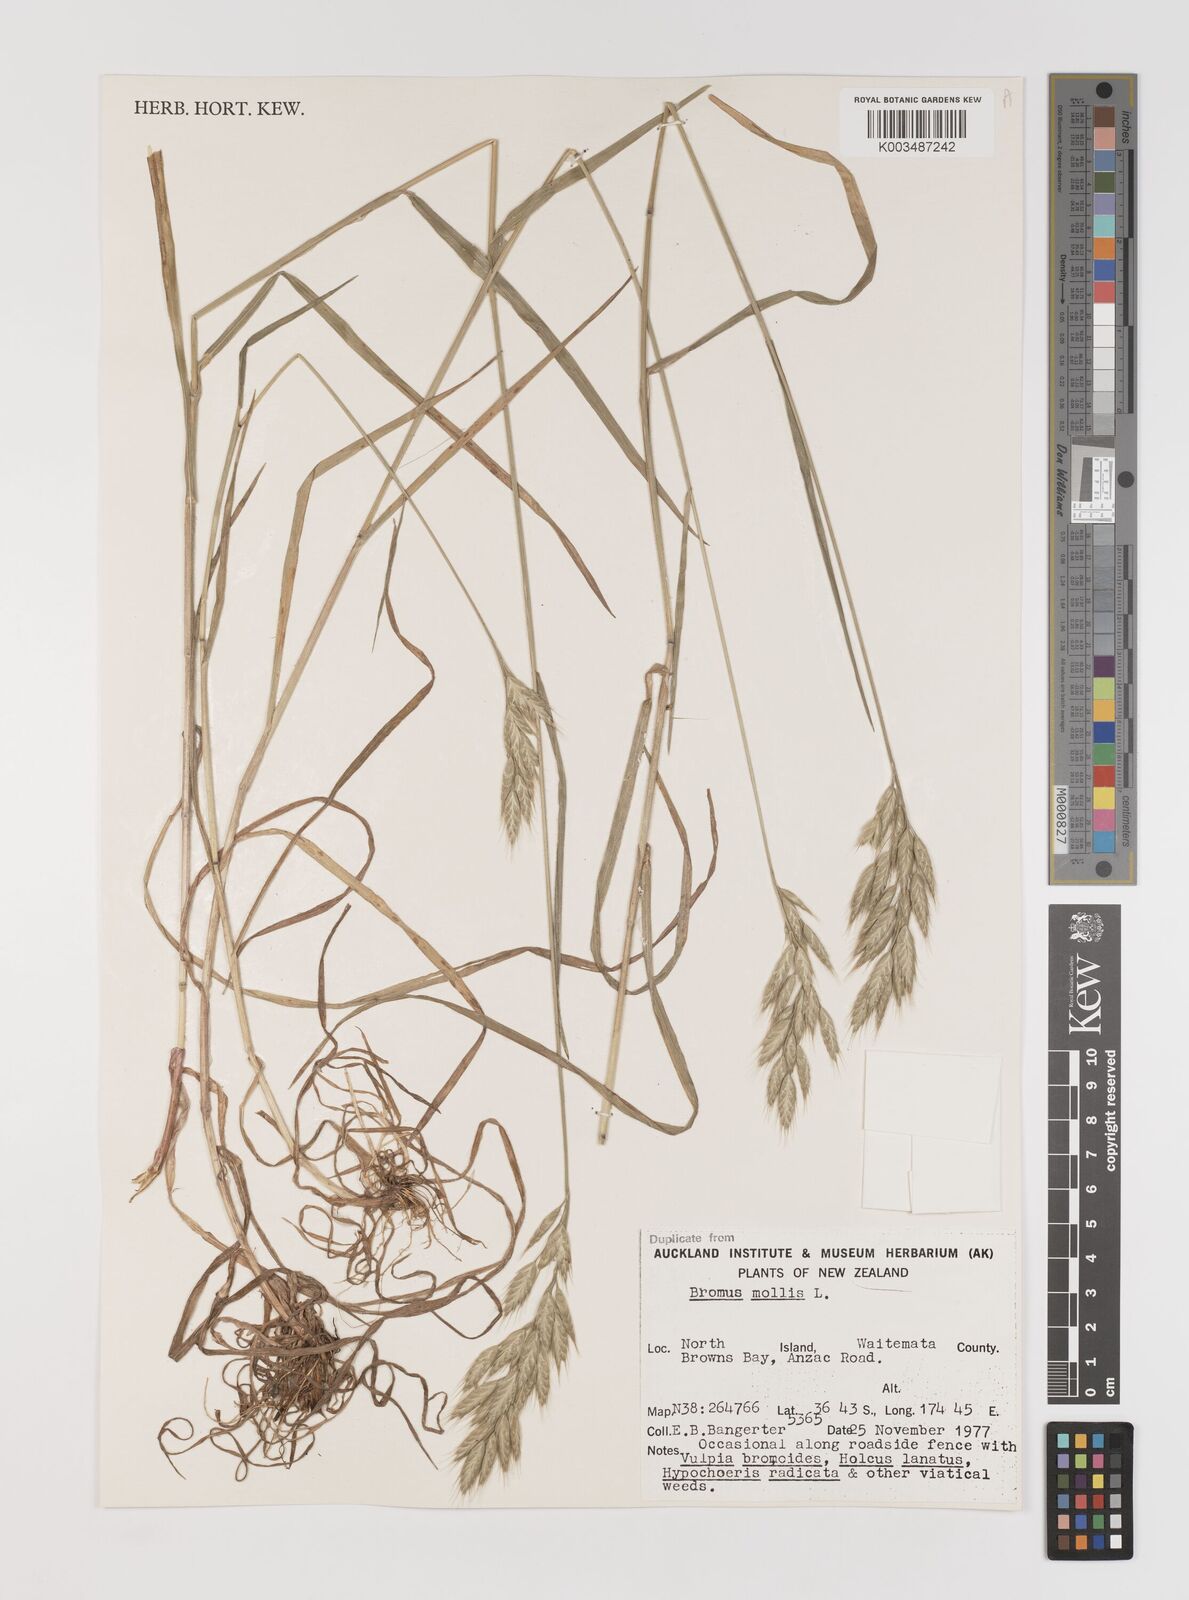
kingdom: Plantae
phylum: Tracheophyta
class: Liliopsida
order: Poales
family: Poaceae
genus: Bromus
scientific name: Bromus hordeaceus
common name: Soft brome
